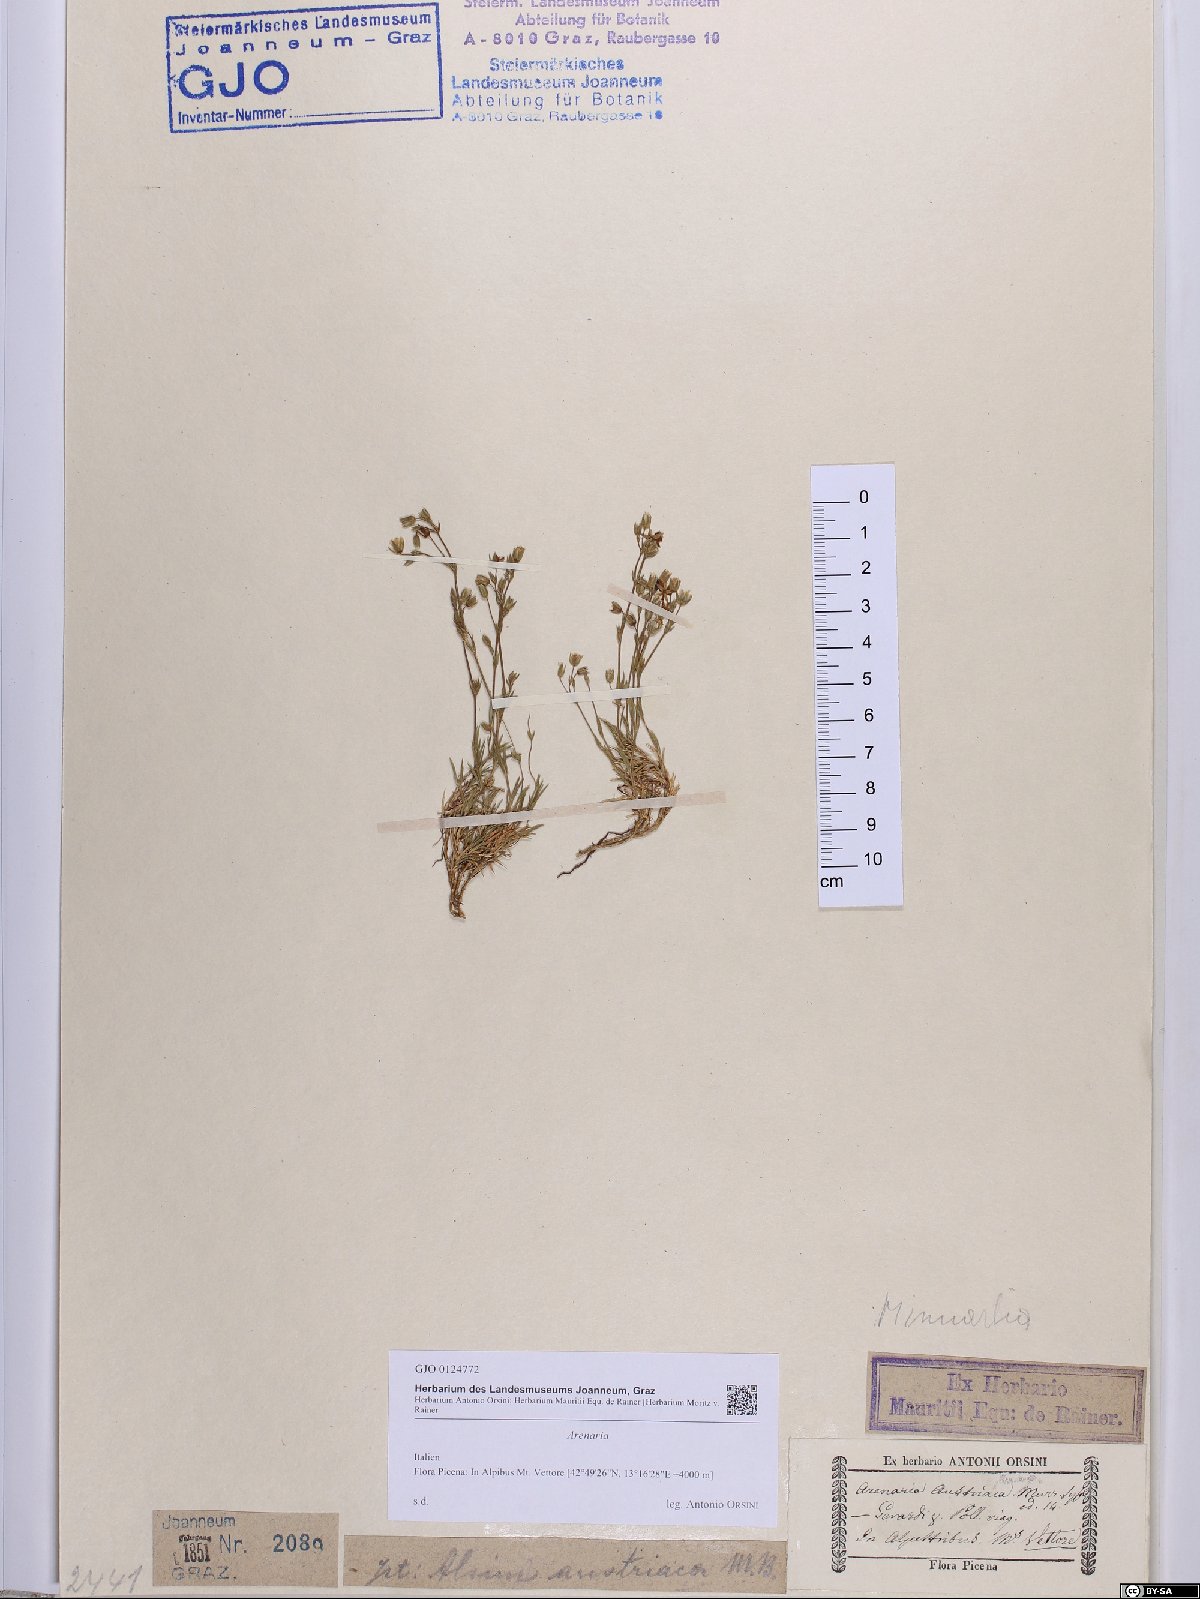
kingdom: Plantae
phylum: Tracheophyta
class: Magnoliopsida
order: Caryophyllales
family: Caryophyllaceae
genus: Arenaria
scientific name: Arenaria
